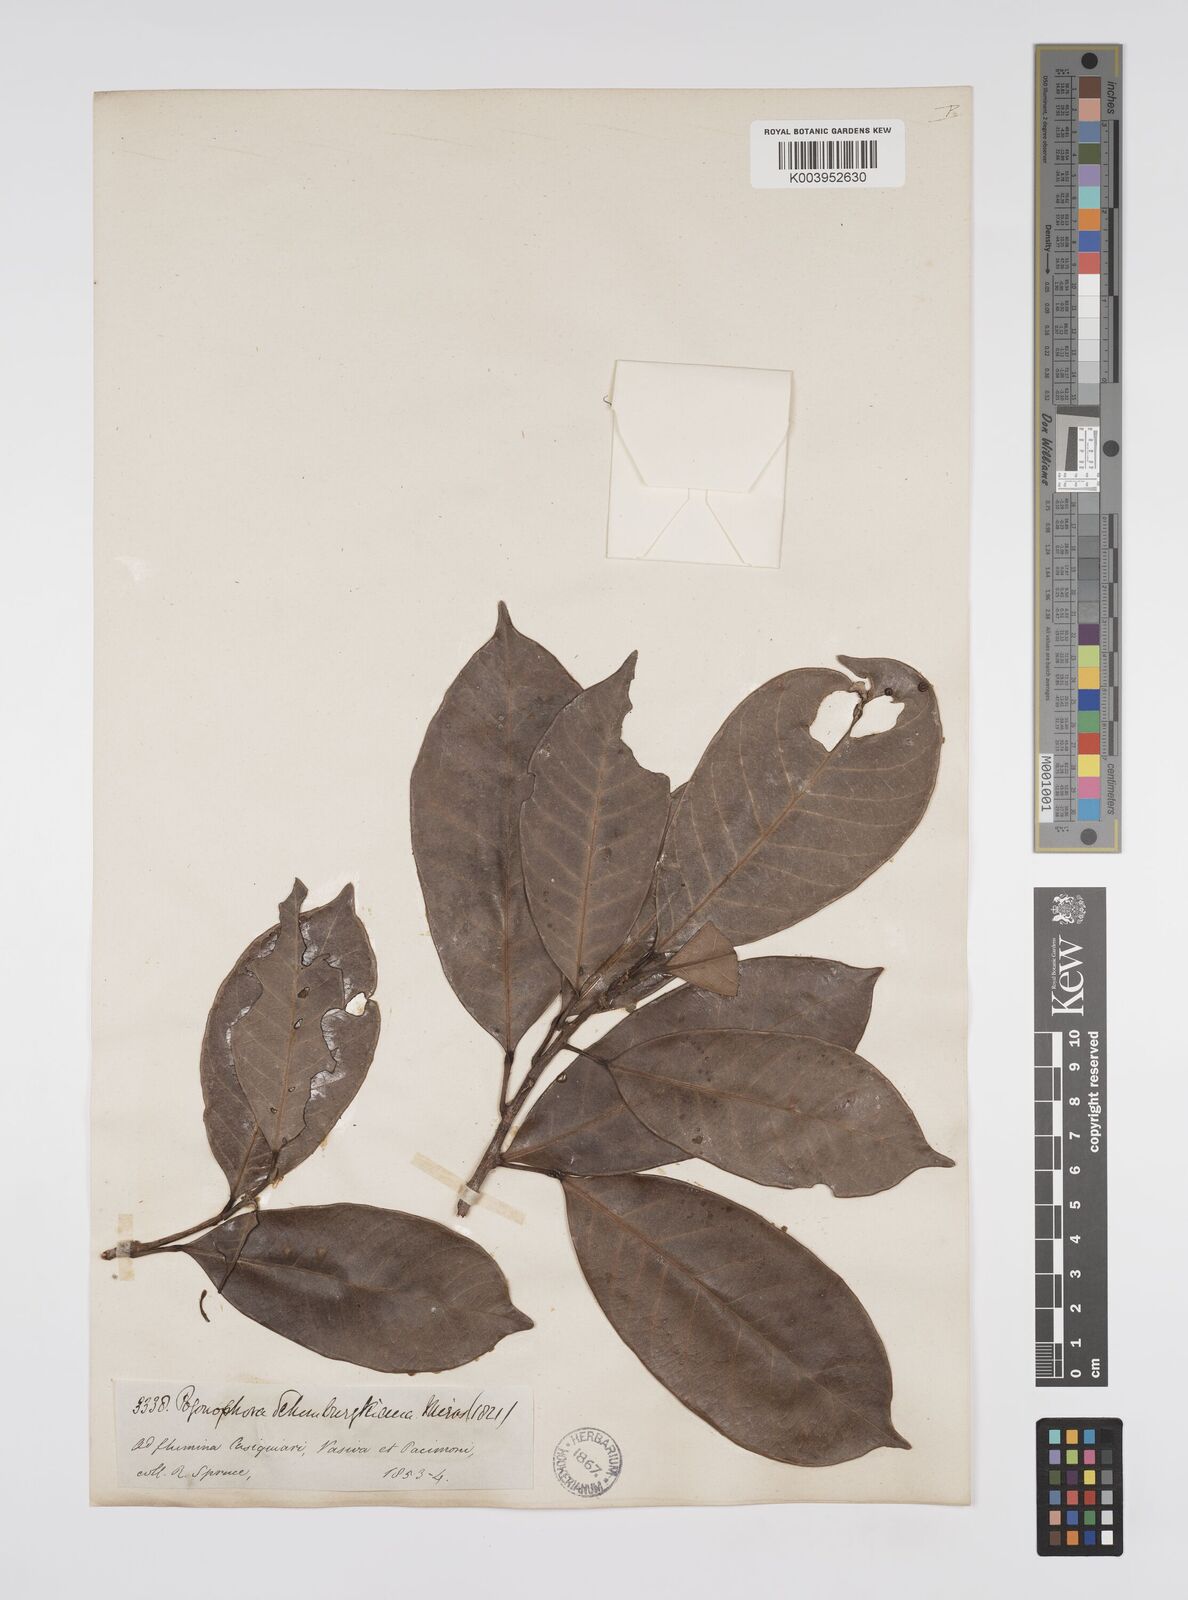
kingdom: Plantae
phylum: Tracheophyta
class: Magnoliopsida
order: Malpighiales
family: Peraceae
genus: Pogonophora
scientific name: Pogonophora schomburgkiana
